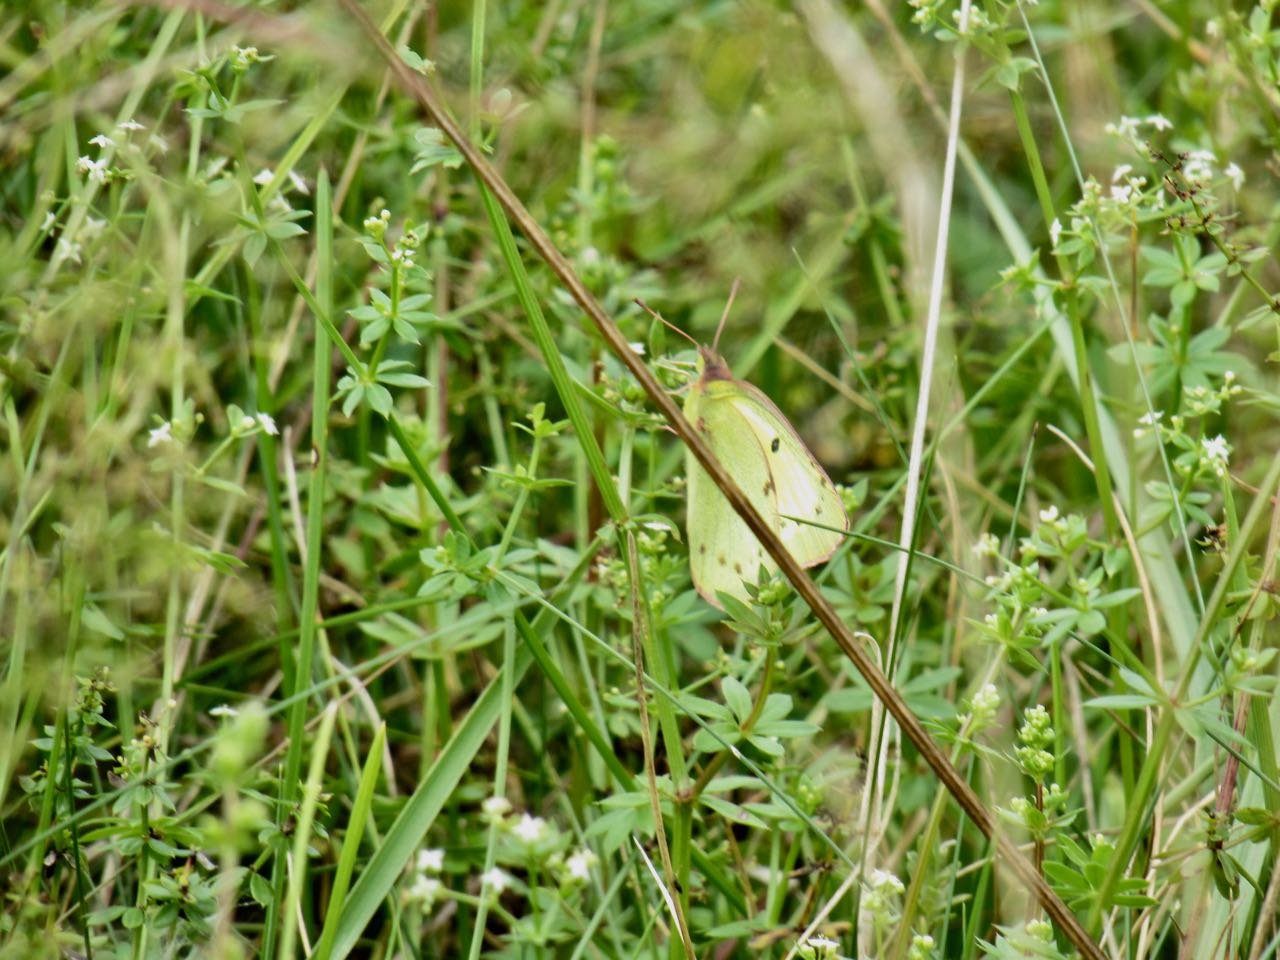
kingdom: Animalia
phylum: Arthropoda
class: Insecta
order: Lepidoptera
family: Pieridae
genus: Colias
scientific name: Colias philodice
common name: Clouded Sulphur
